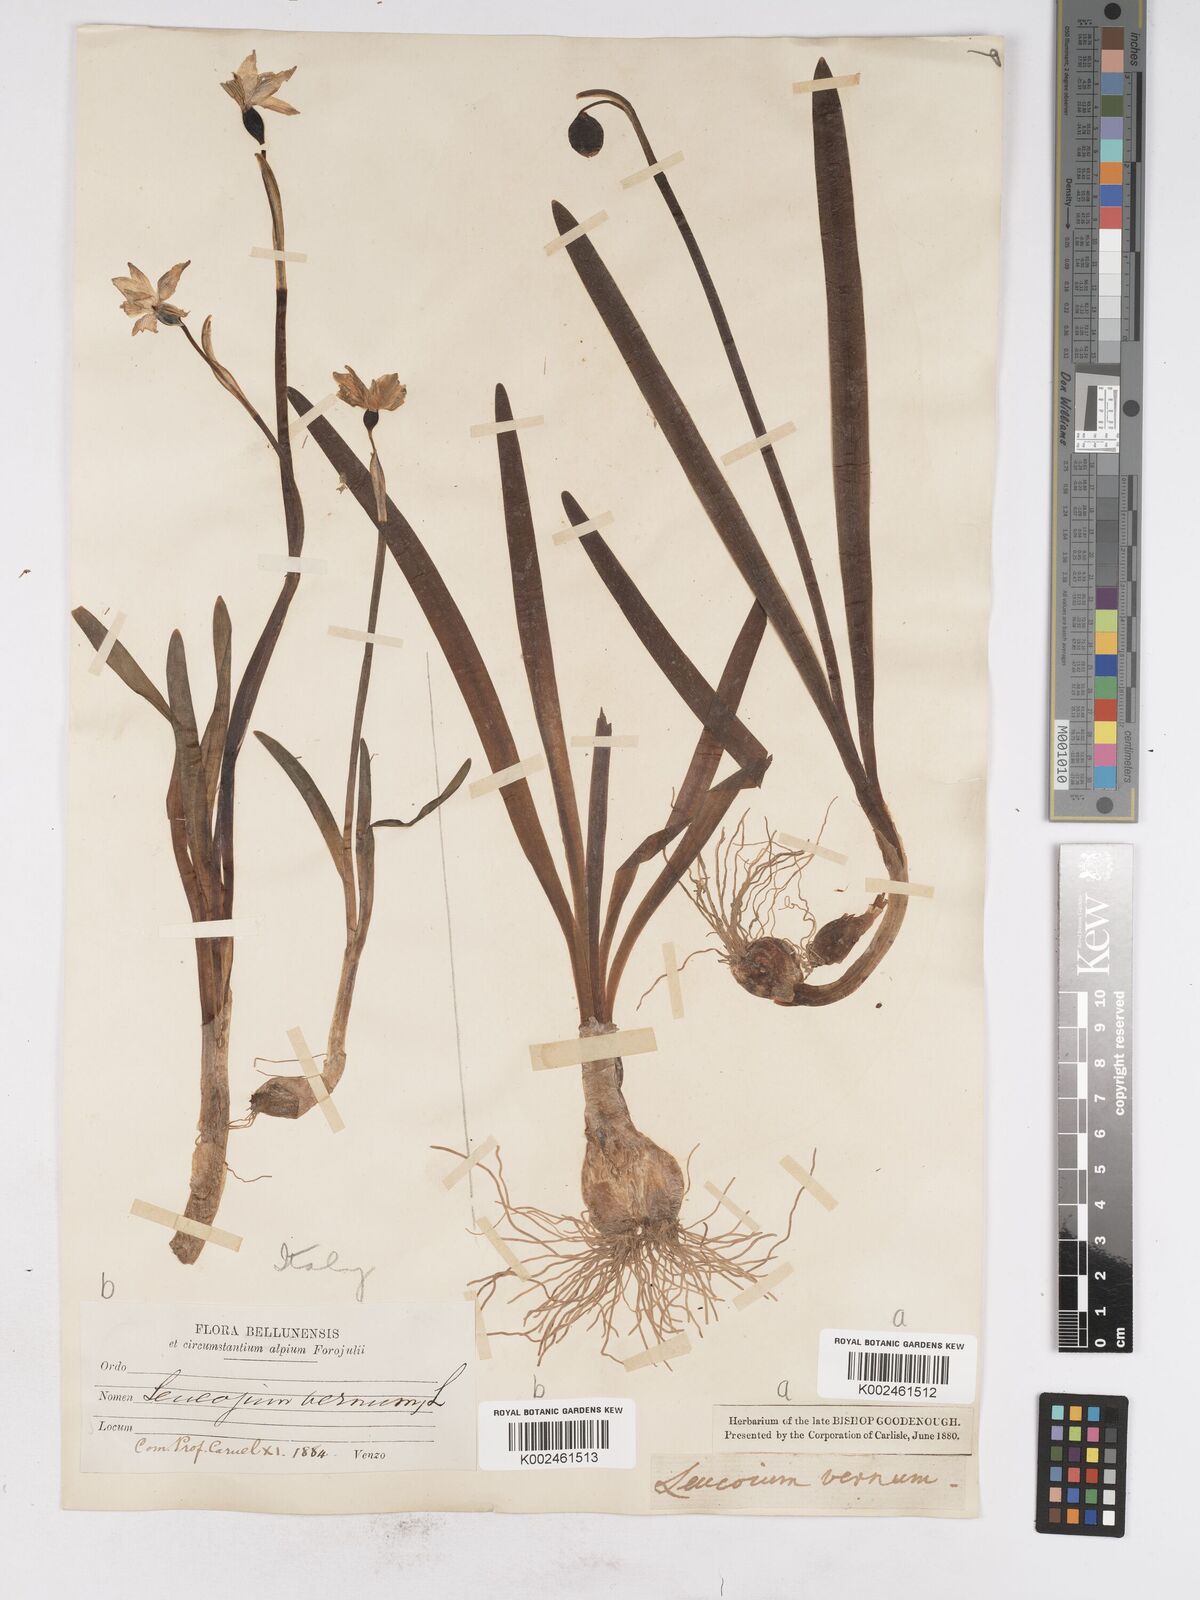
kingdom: Plantae
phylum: Tracheophyta
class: Liliopsida
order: Asparagales
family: Amaryllidaceae
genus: Leucojum
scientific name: Leucojum vernum
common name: Spring snowflake
